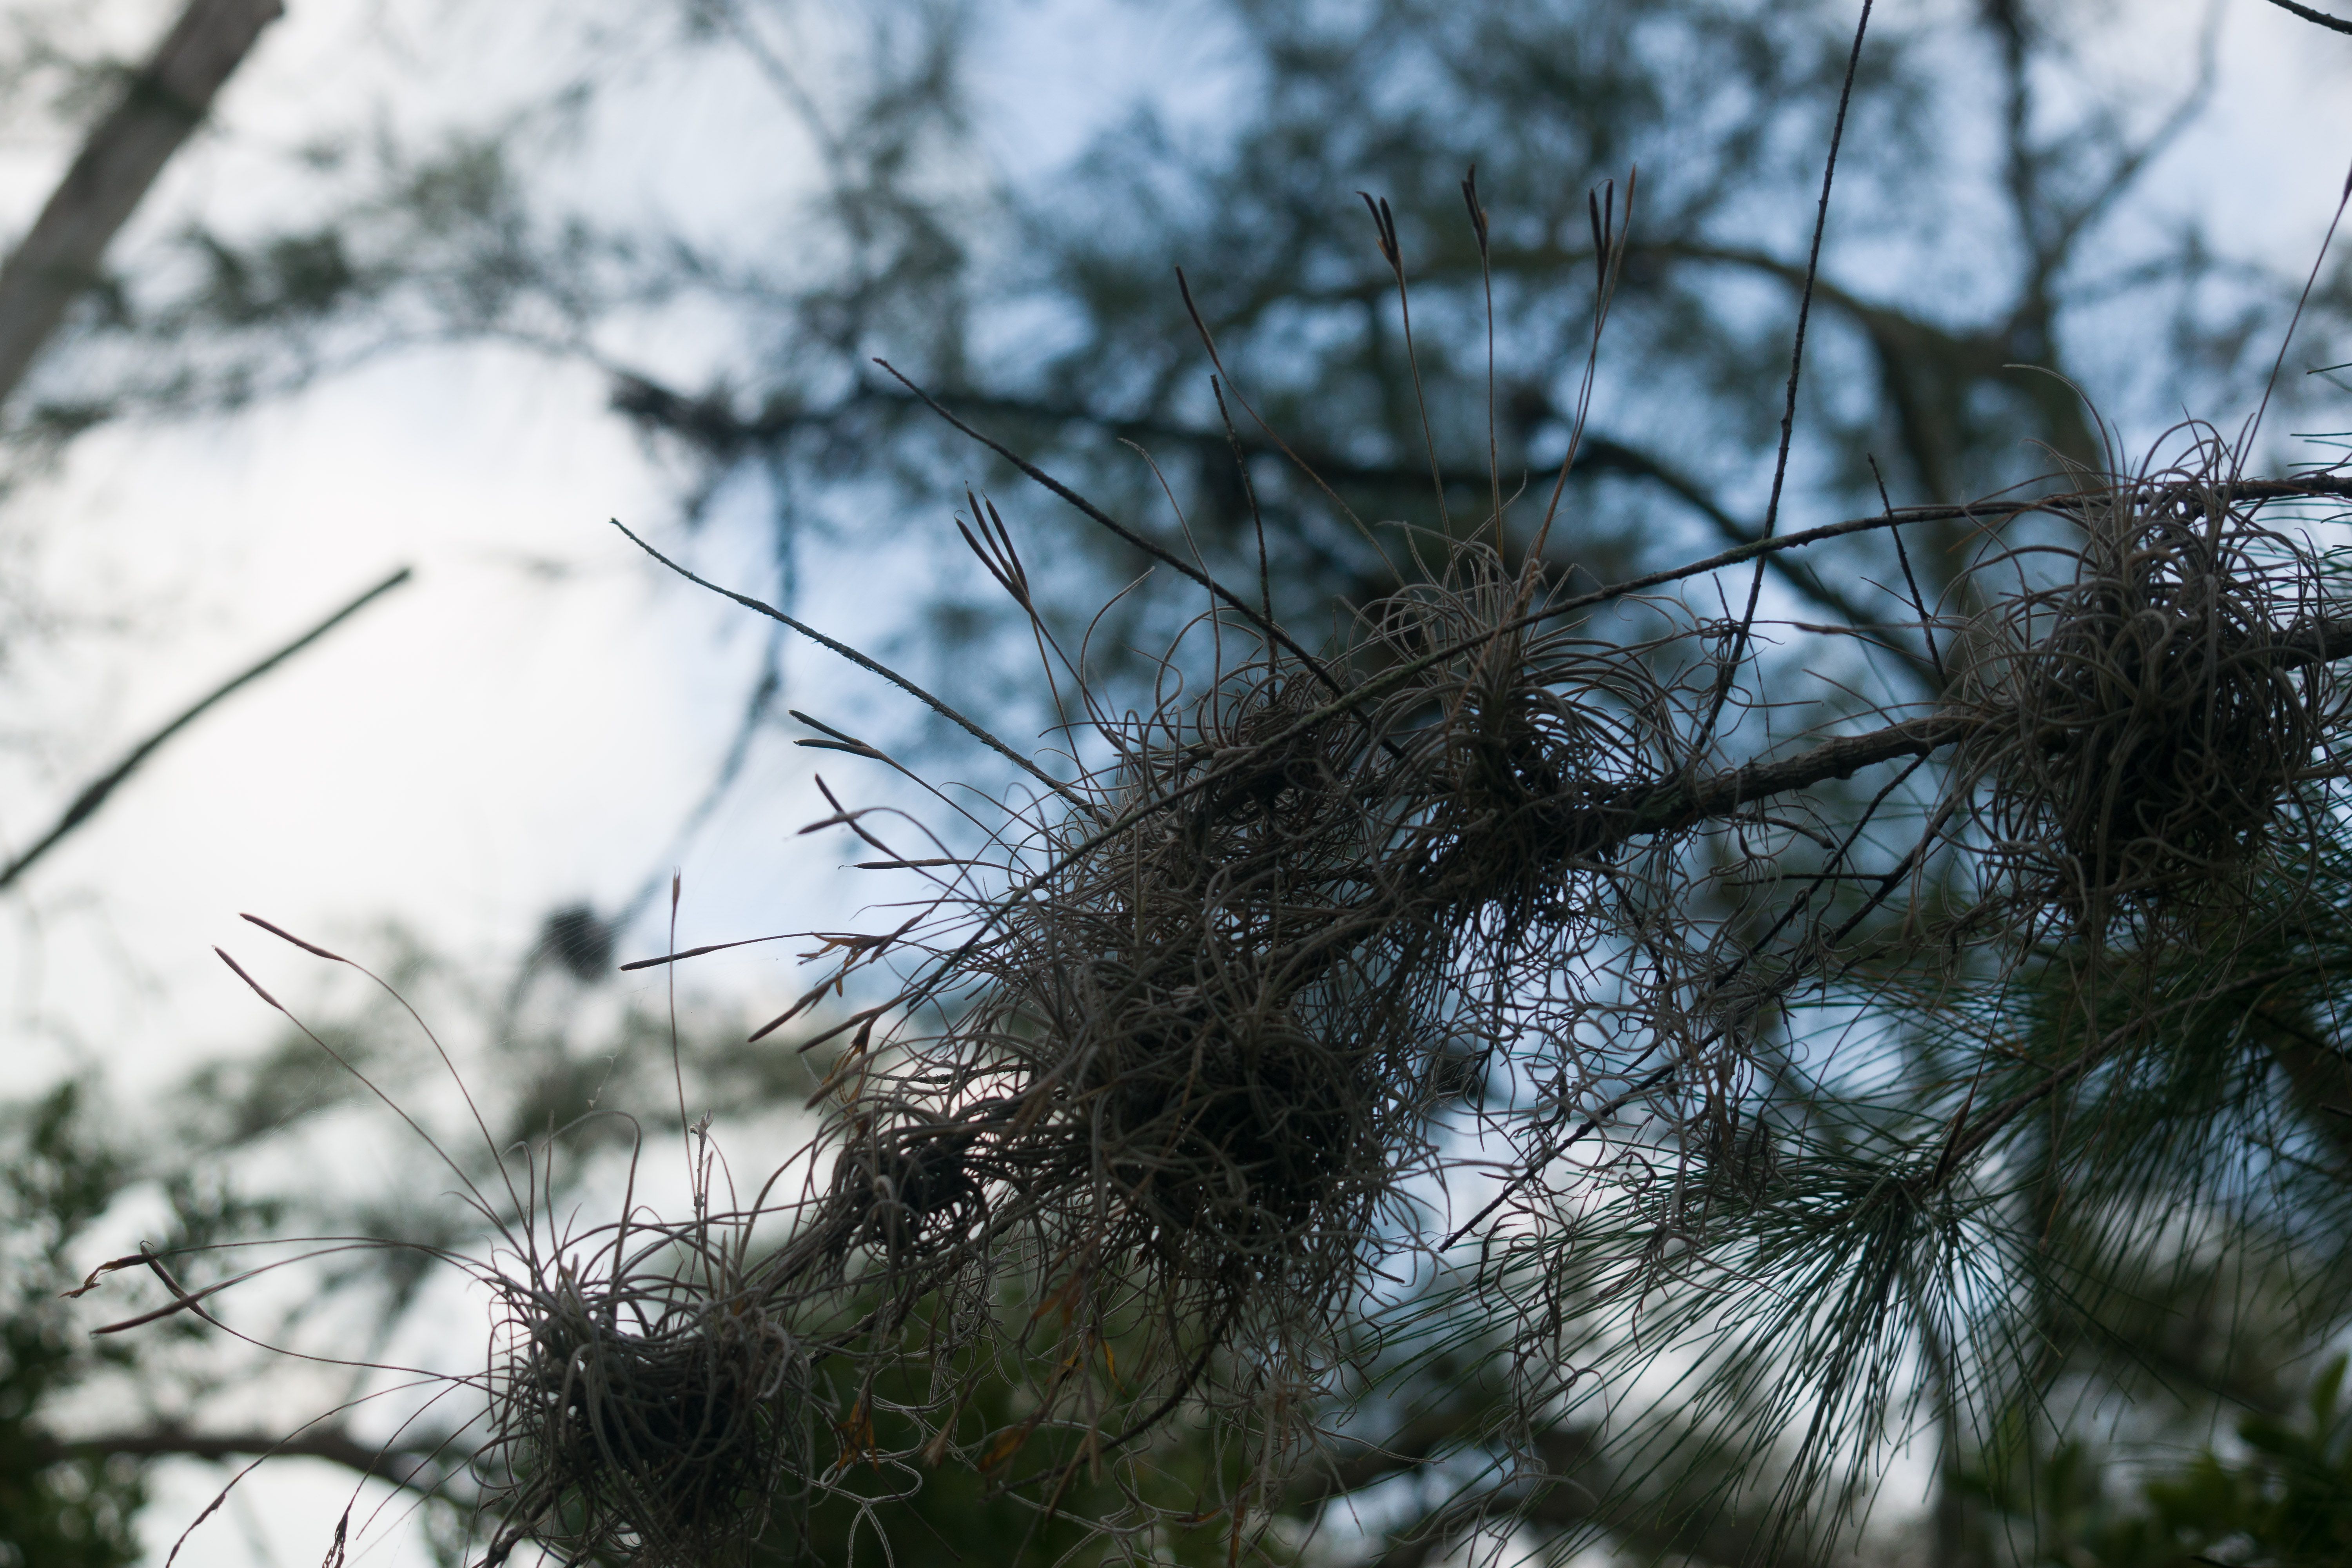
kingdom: Plantae
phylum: Tracheophyta
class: Liliopsida
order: Poales
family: Bromeliaceae
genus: Tillandsia
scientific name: Tillandsia recurvata
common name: Small ballmoss
